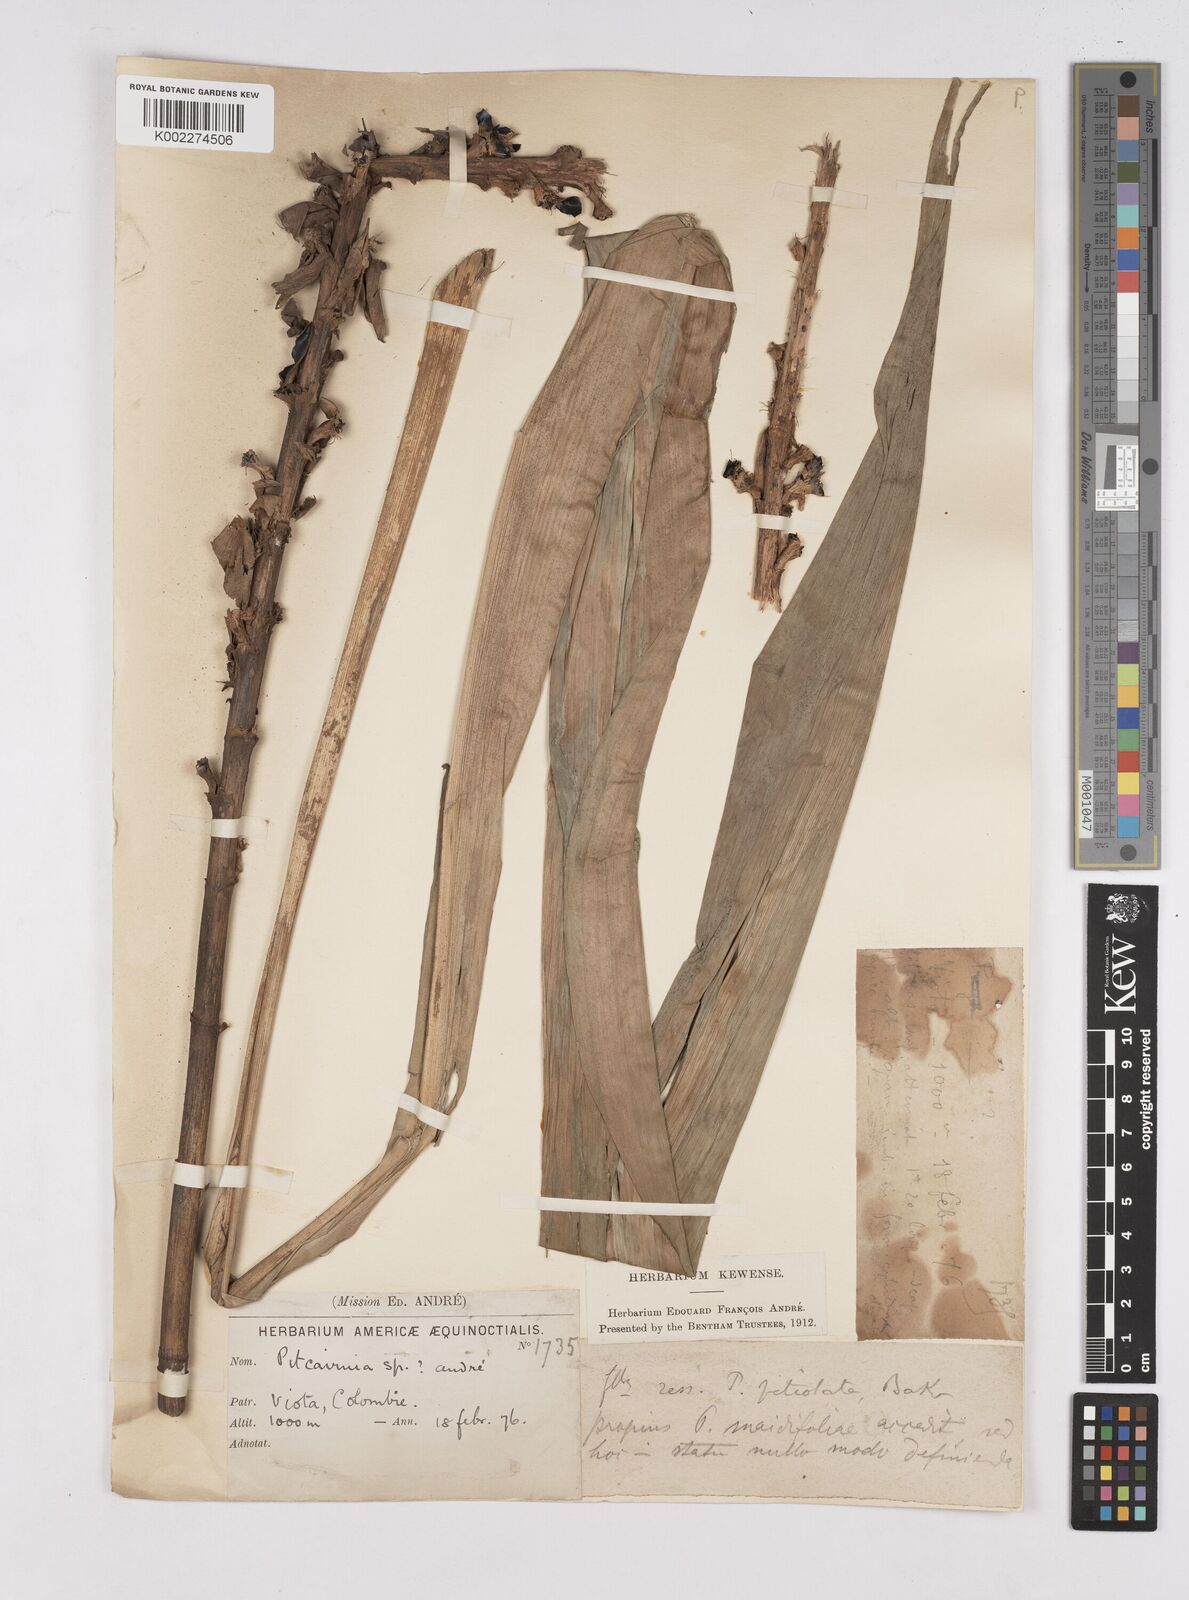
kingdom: Plantae
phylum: Tracheophyta
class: Liliopsida
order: Poales
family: Bromeliaceae
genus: Pitcairnia
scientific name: Pitcairnia
